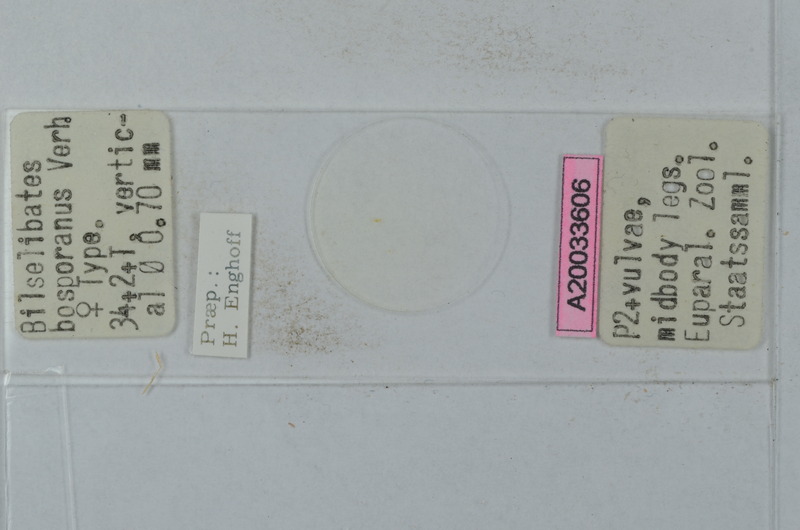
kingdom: Animalia
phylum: Arthropoda
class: Diplopoda
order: Julida
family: Blaniulidae
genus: Cibiniulus
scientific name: Cibiniulus phlepsii
